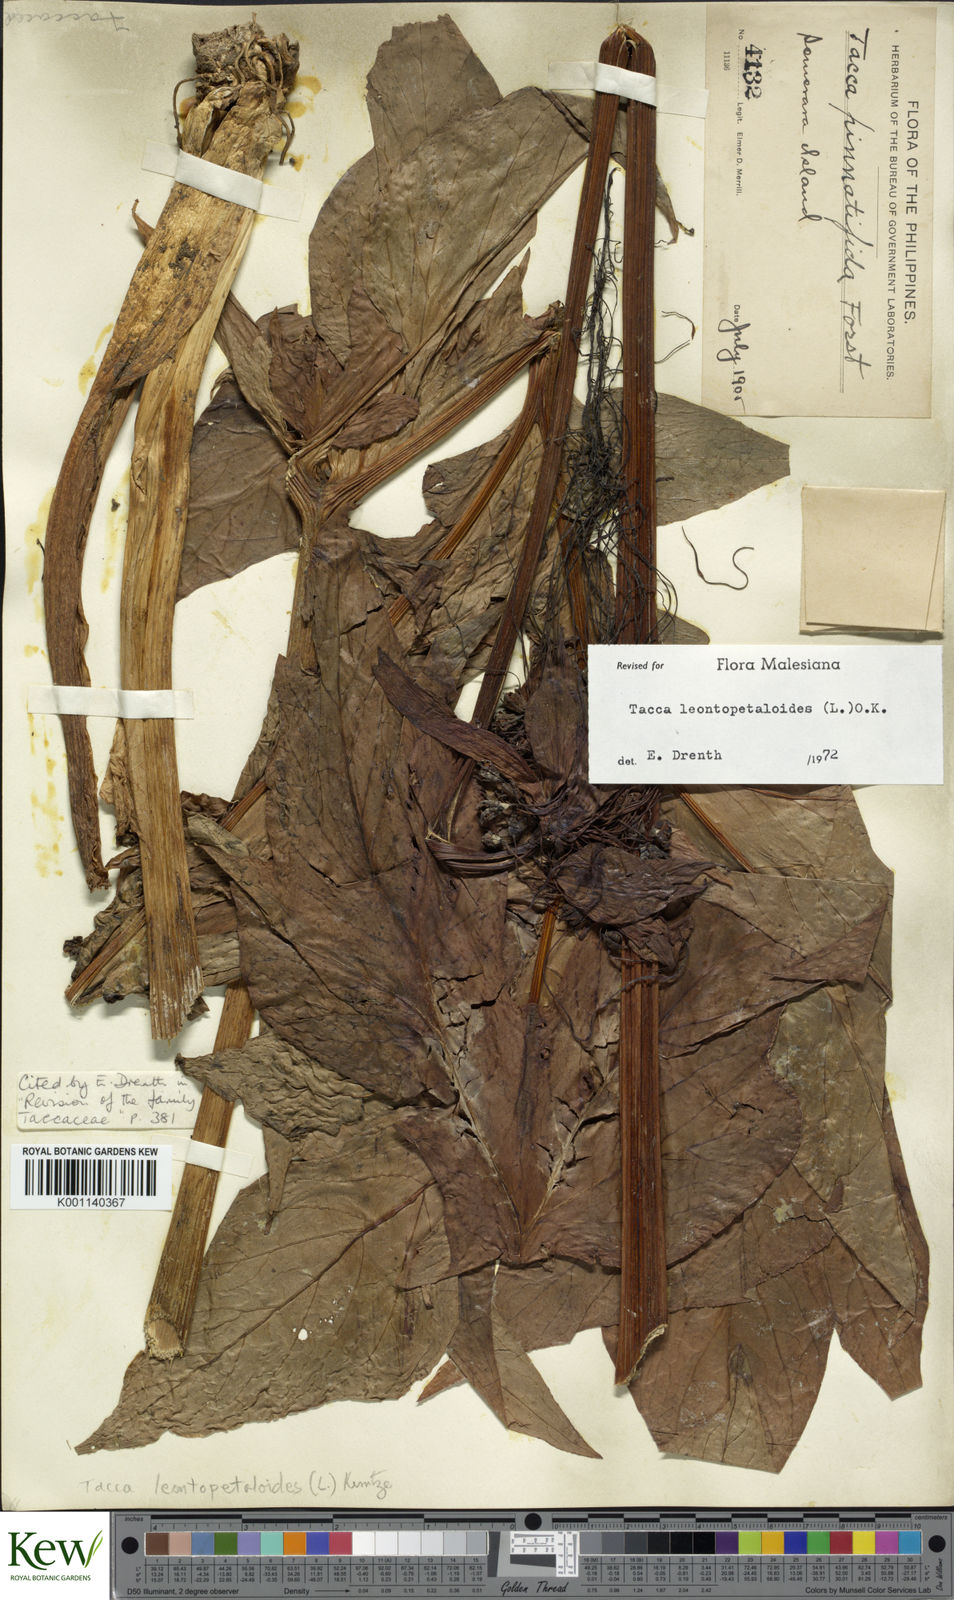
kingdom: Plantae
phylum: Tracheophyta
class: Liliopsida
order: Dioscoreales
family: Dioscoreaceae
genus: Tacca
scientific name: Tacca leontopetaloides
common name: Arrowroot
